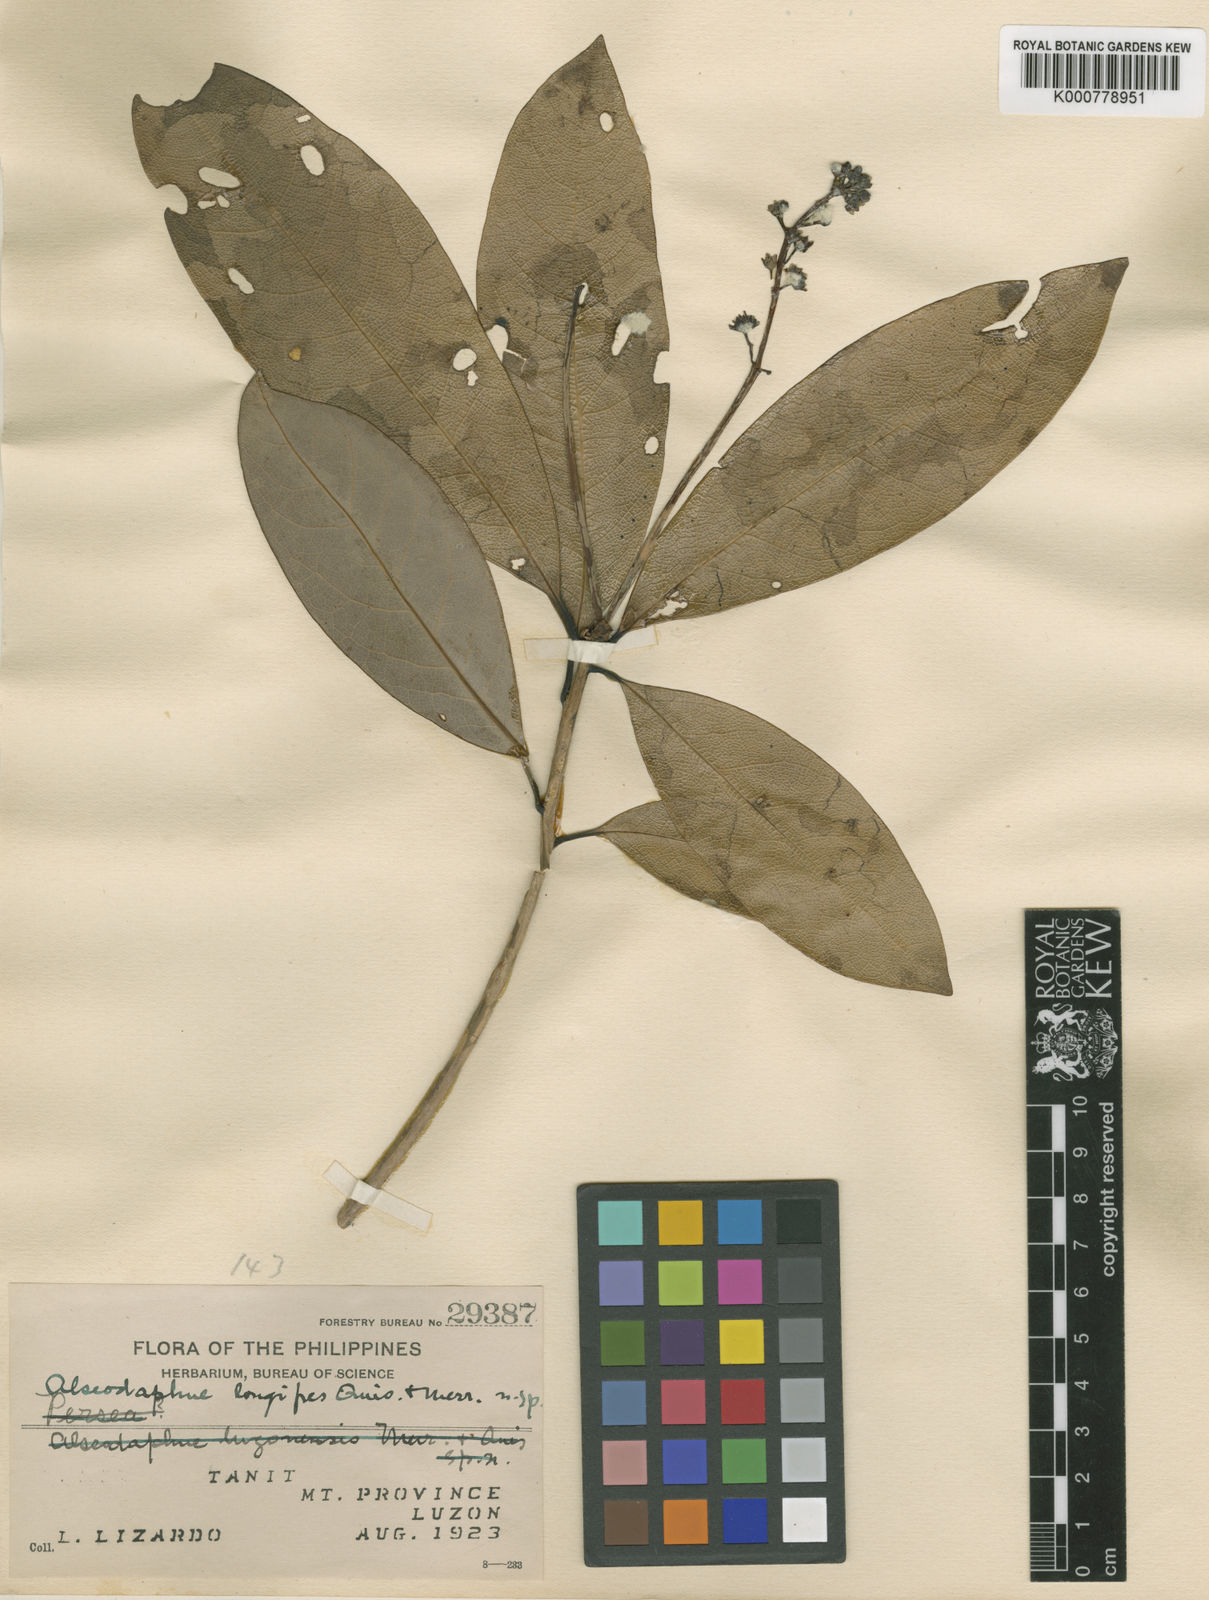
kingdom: Plantae
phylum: Tracheophyta
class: Magnoliopsida
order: Laurales
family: Lauraceae
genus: Alseodaphne
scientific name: Alseodaphne philippinensis
